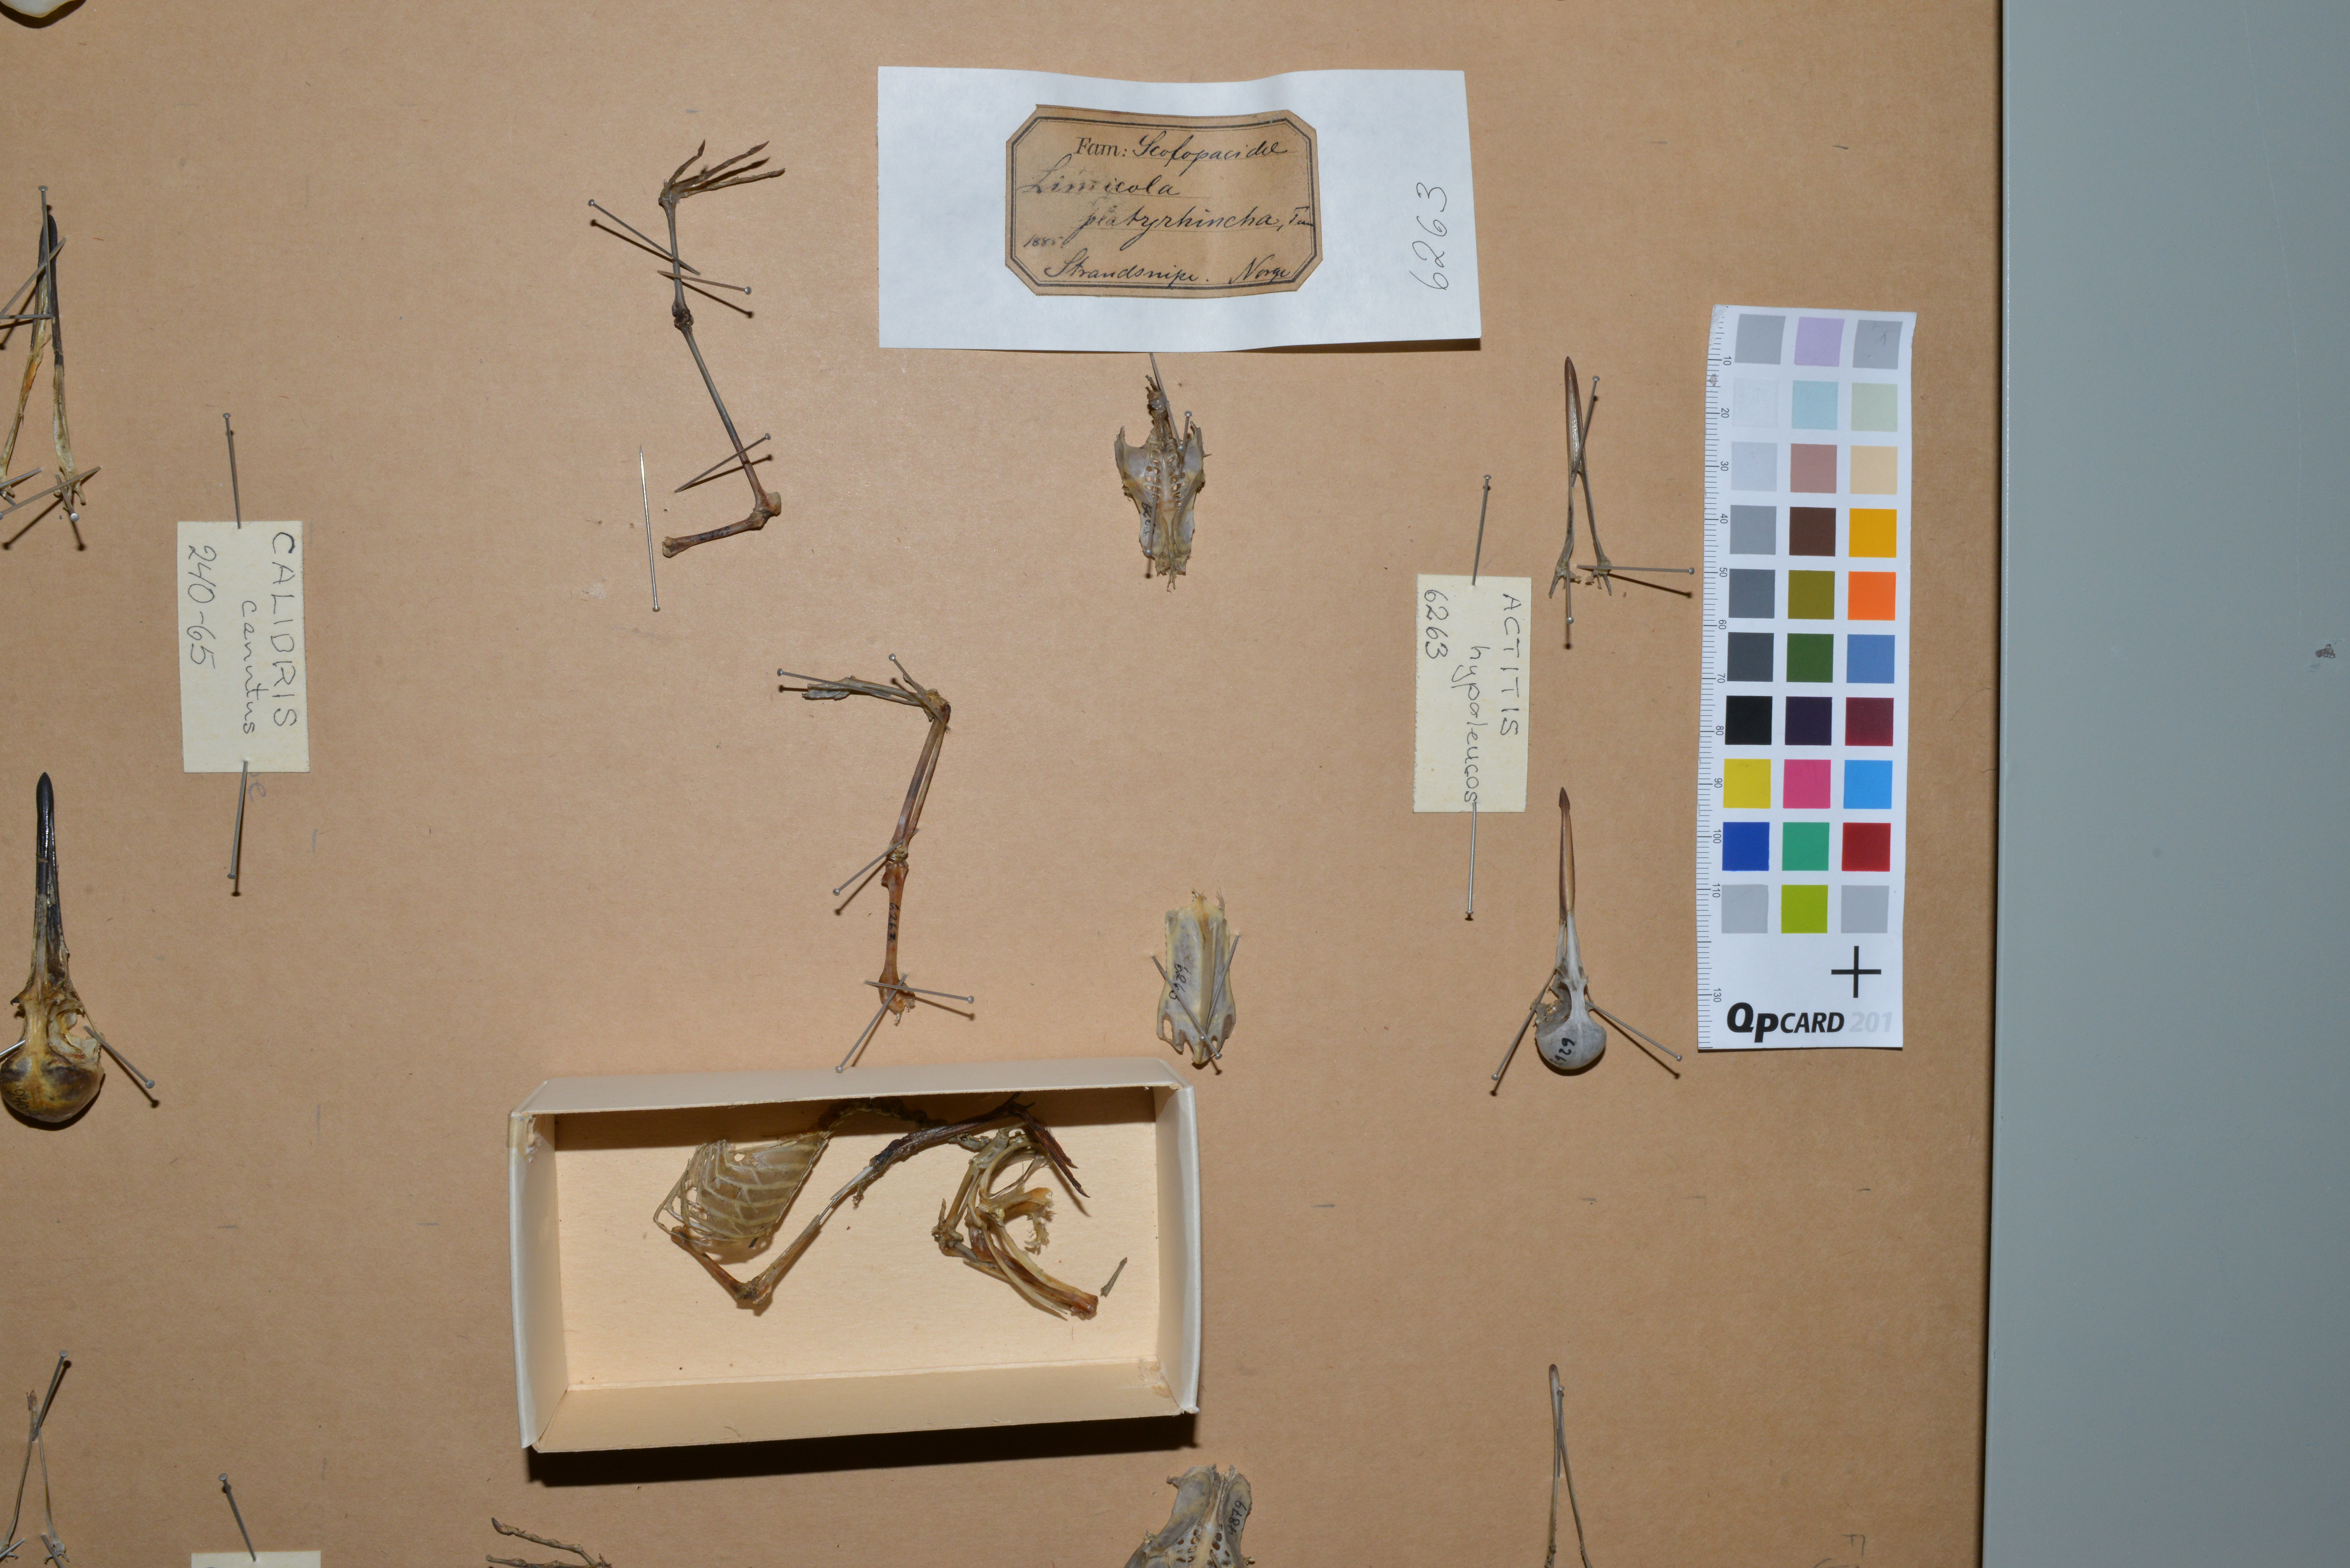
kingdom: Animalia
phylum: Chordata
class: Aves
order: Charadriiformes
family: Scolopacidae
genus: Calidris
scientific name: Calidris falcinellus
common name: Broad-billed sandpiper
